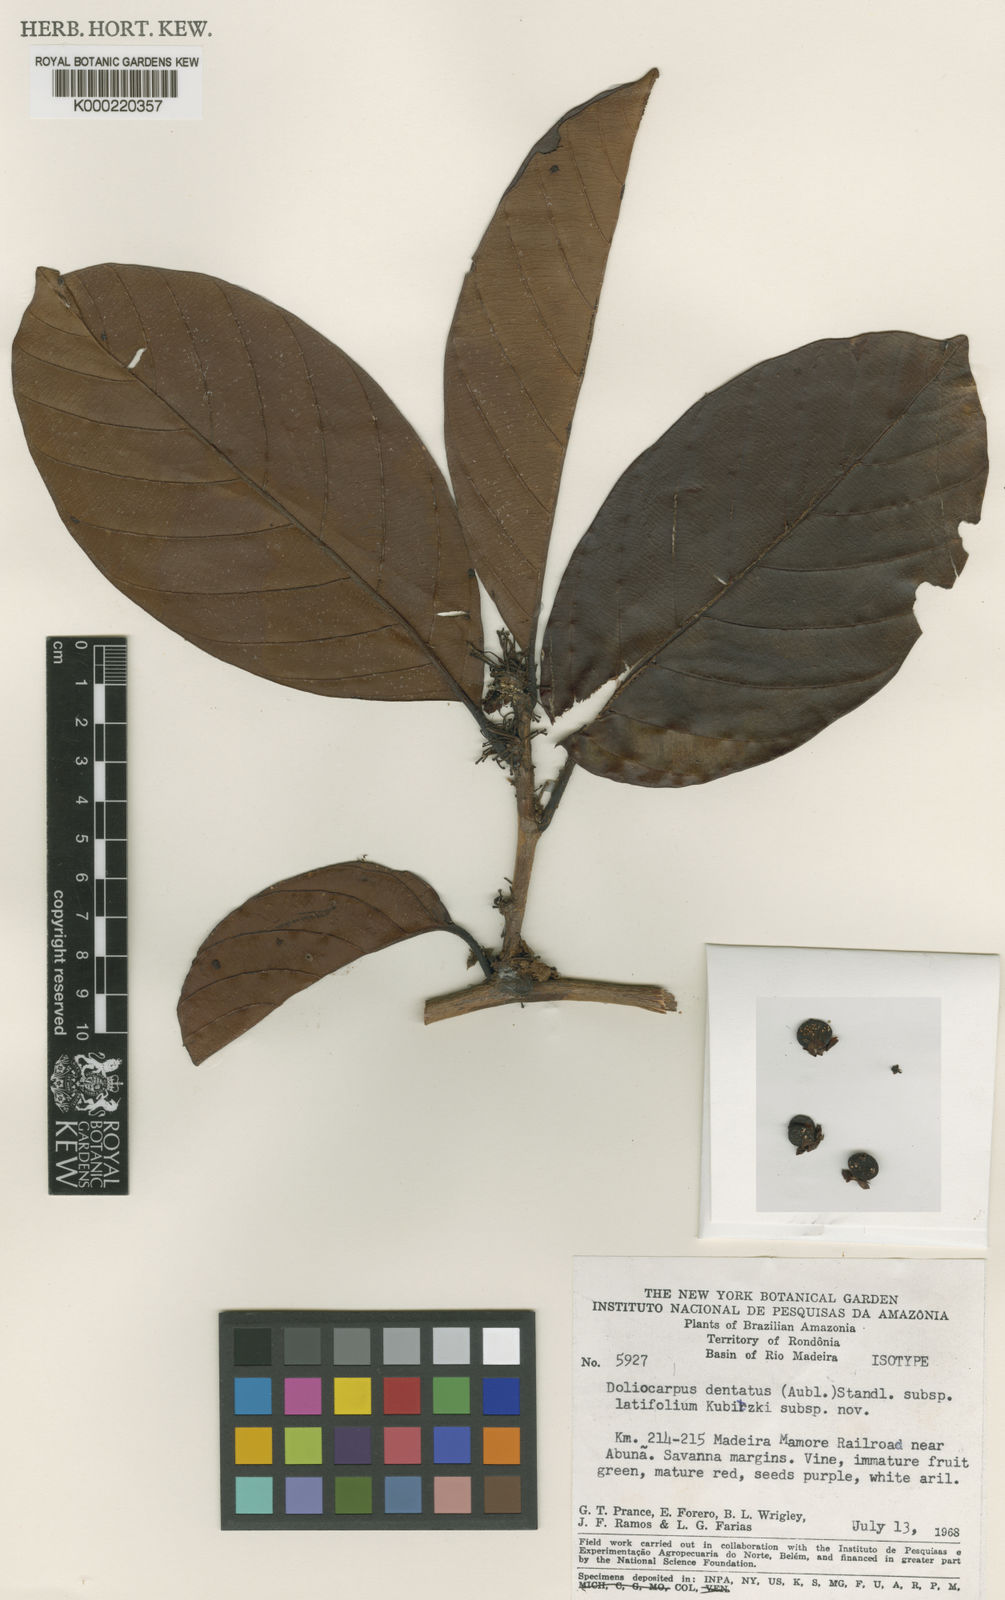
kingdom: Plantae
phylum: Tracheophyta
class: Magnoliopsida
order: Dilleniales
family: Dilleniaceae
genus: Doliocarpus
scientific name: Doliocarpus dentatus
